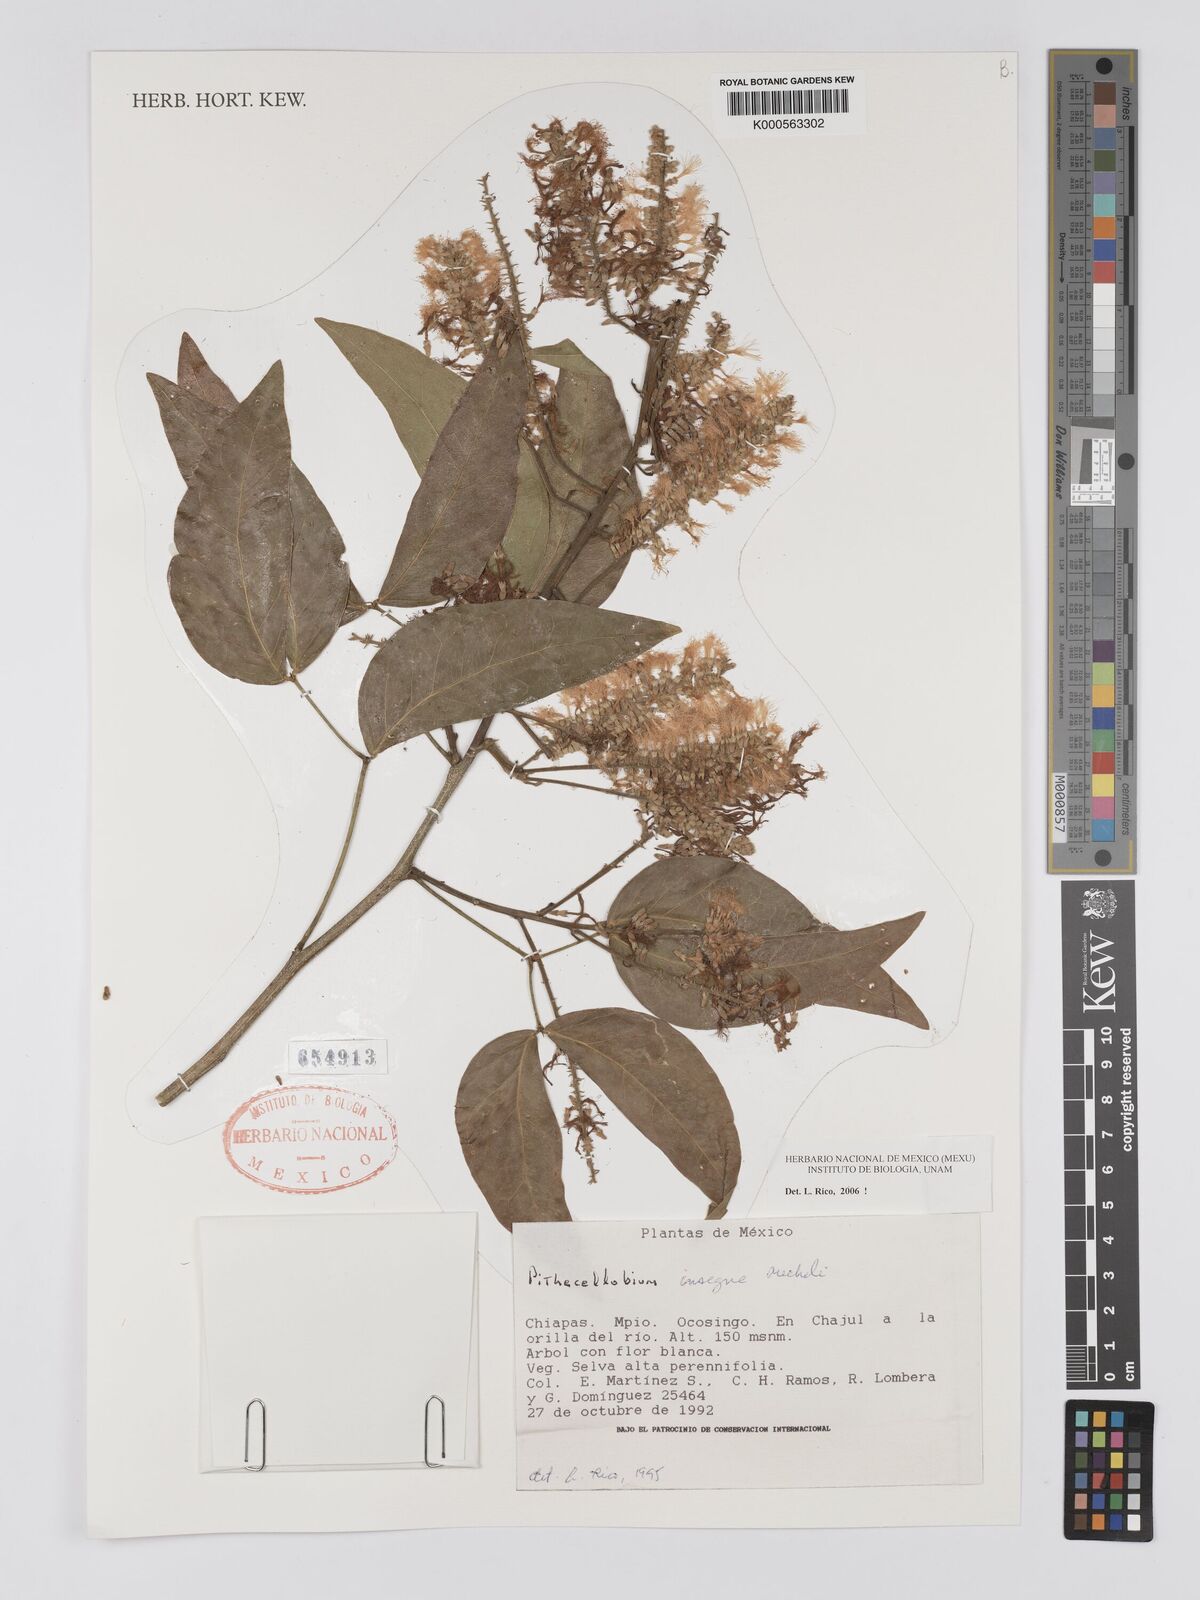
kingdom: Plantae
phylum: Tracheophyta
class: Magnoliopsida
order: Fabales
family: Fabaceae
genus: Pithecellobium
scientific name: Pithecellobium lanceolatum
